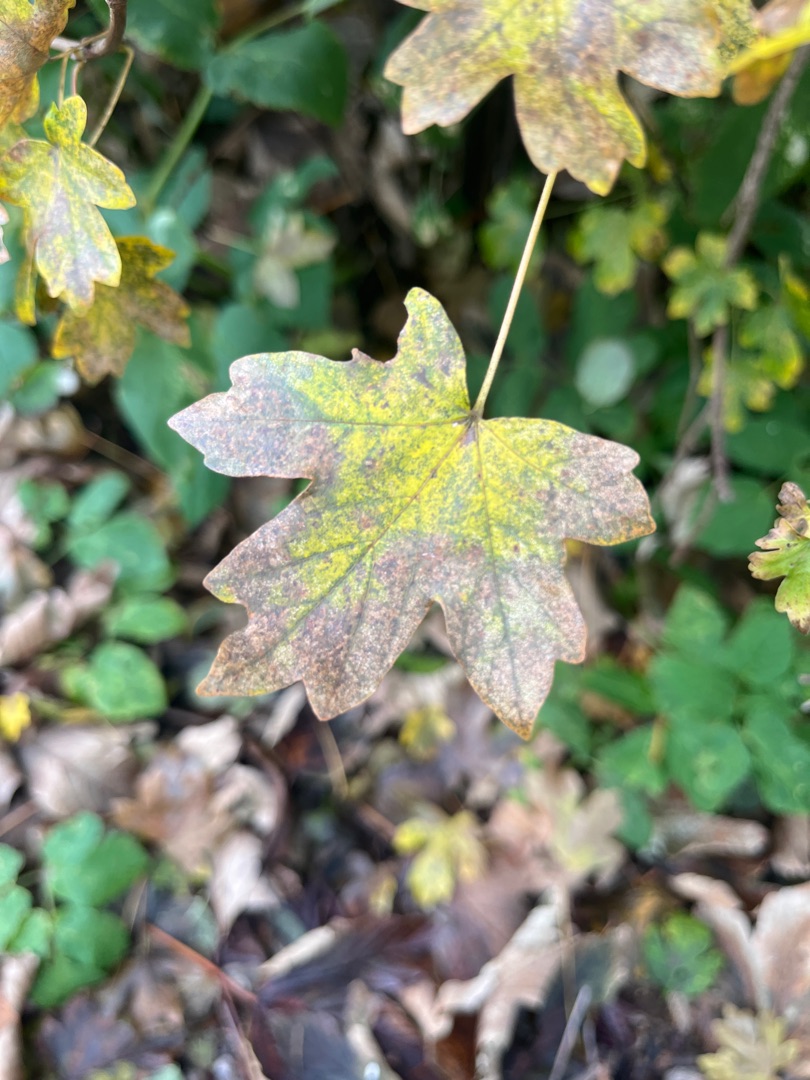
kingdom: Plantae
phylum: Tracheophyta
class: Magnoliopsida
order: Sapindales
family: Sapindaceae
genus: Acer
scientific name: Acer campestre
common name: Navr
